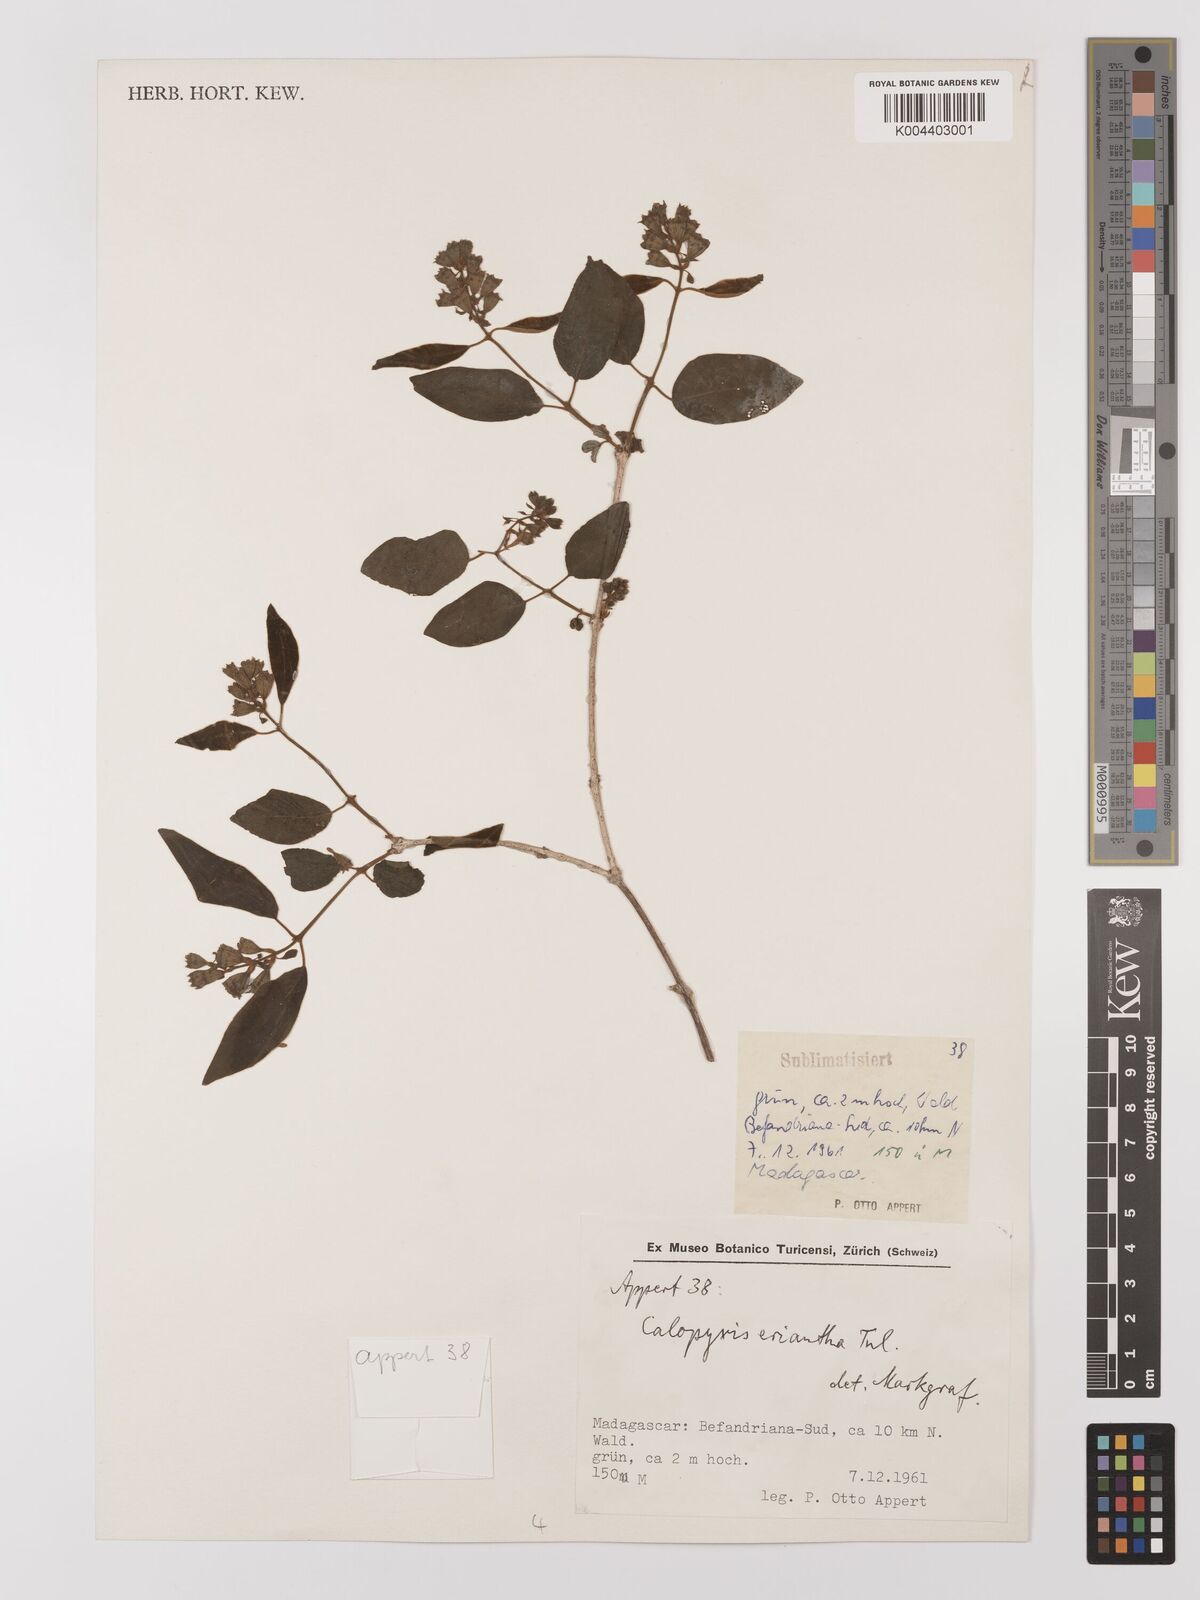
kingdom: Plantae
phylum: Tracheophyta
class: Magnoliopsida
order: Myrtales
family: Combretaceae
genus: Combretum
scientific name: Combretum longicollum
